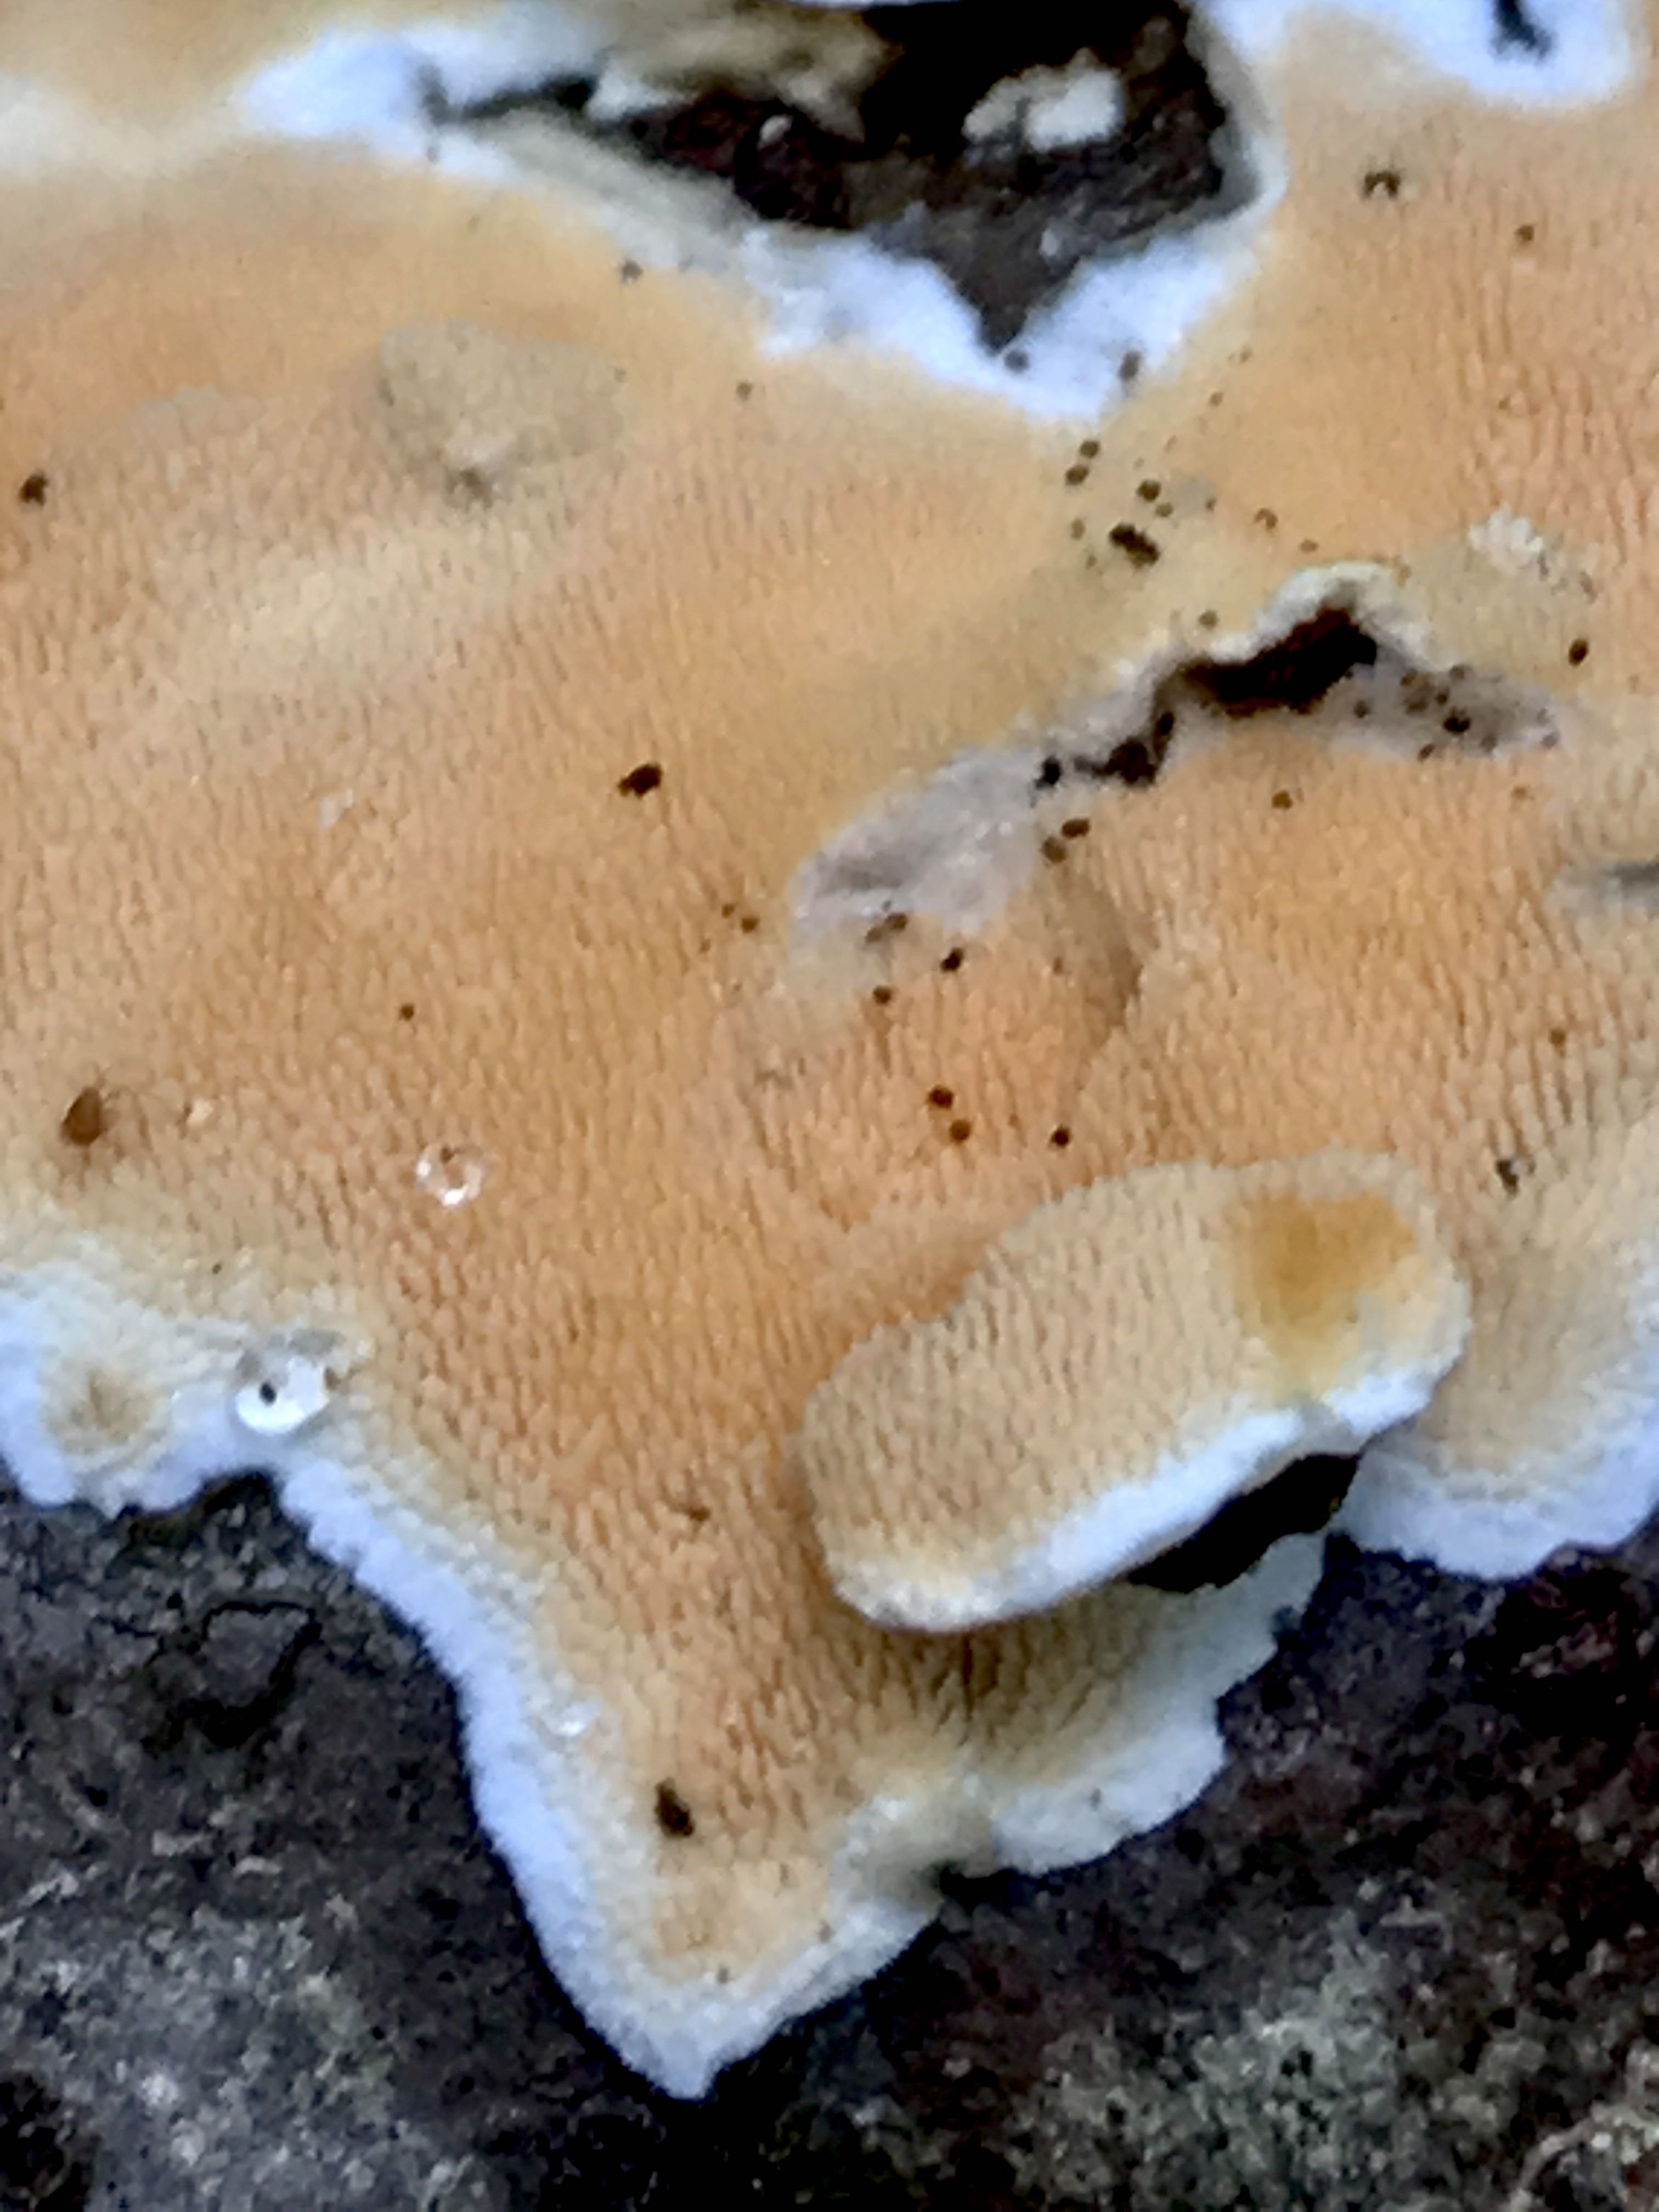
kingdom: Fungi
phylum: Basidiomycota
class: Agaricomycetes
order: Polyporales
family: Steccherinaceae
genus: Steccherinum
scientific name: Steccherinum ochraceum
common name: almindelig skønpig
